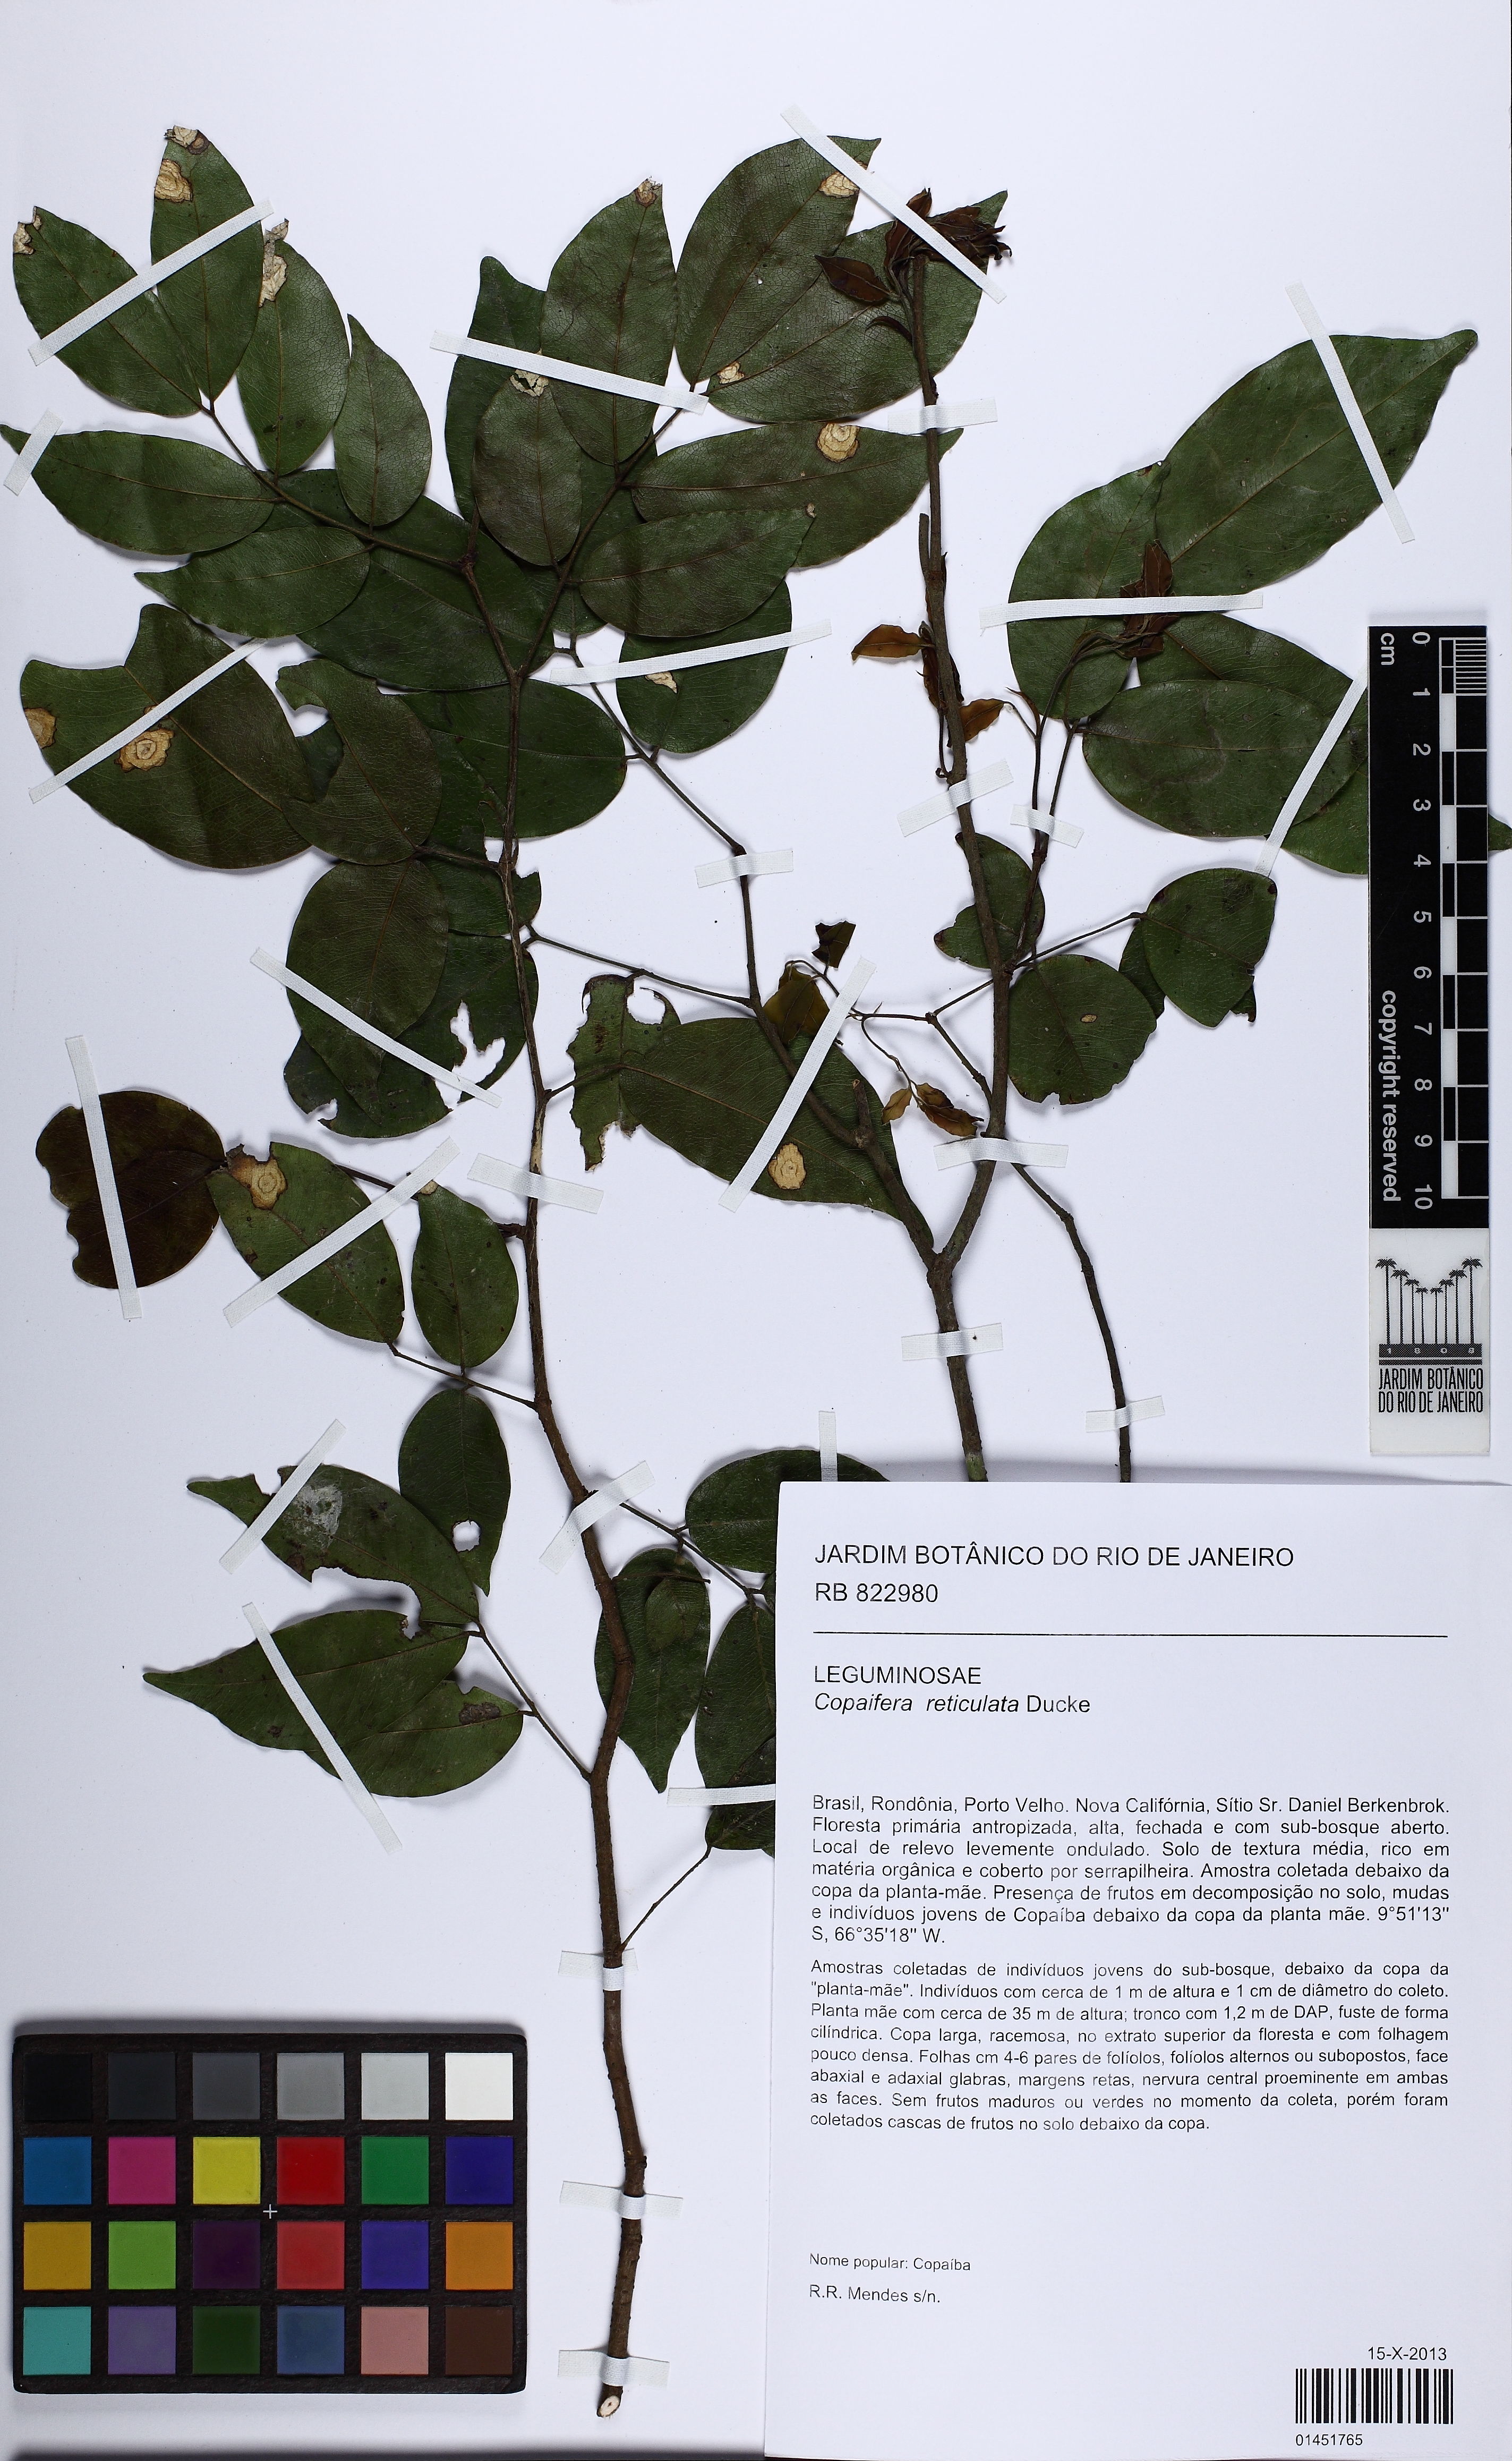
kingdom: Plantae
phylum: Tracheophyta
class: Magnoliopsida
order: Fabales
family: Fabaceae
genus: Copaifera
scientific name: Copaifera copaibo
